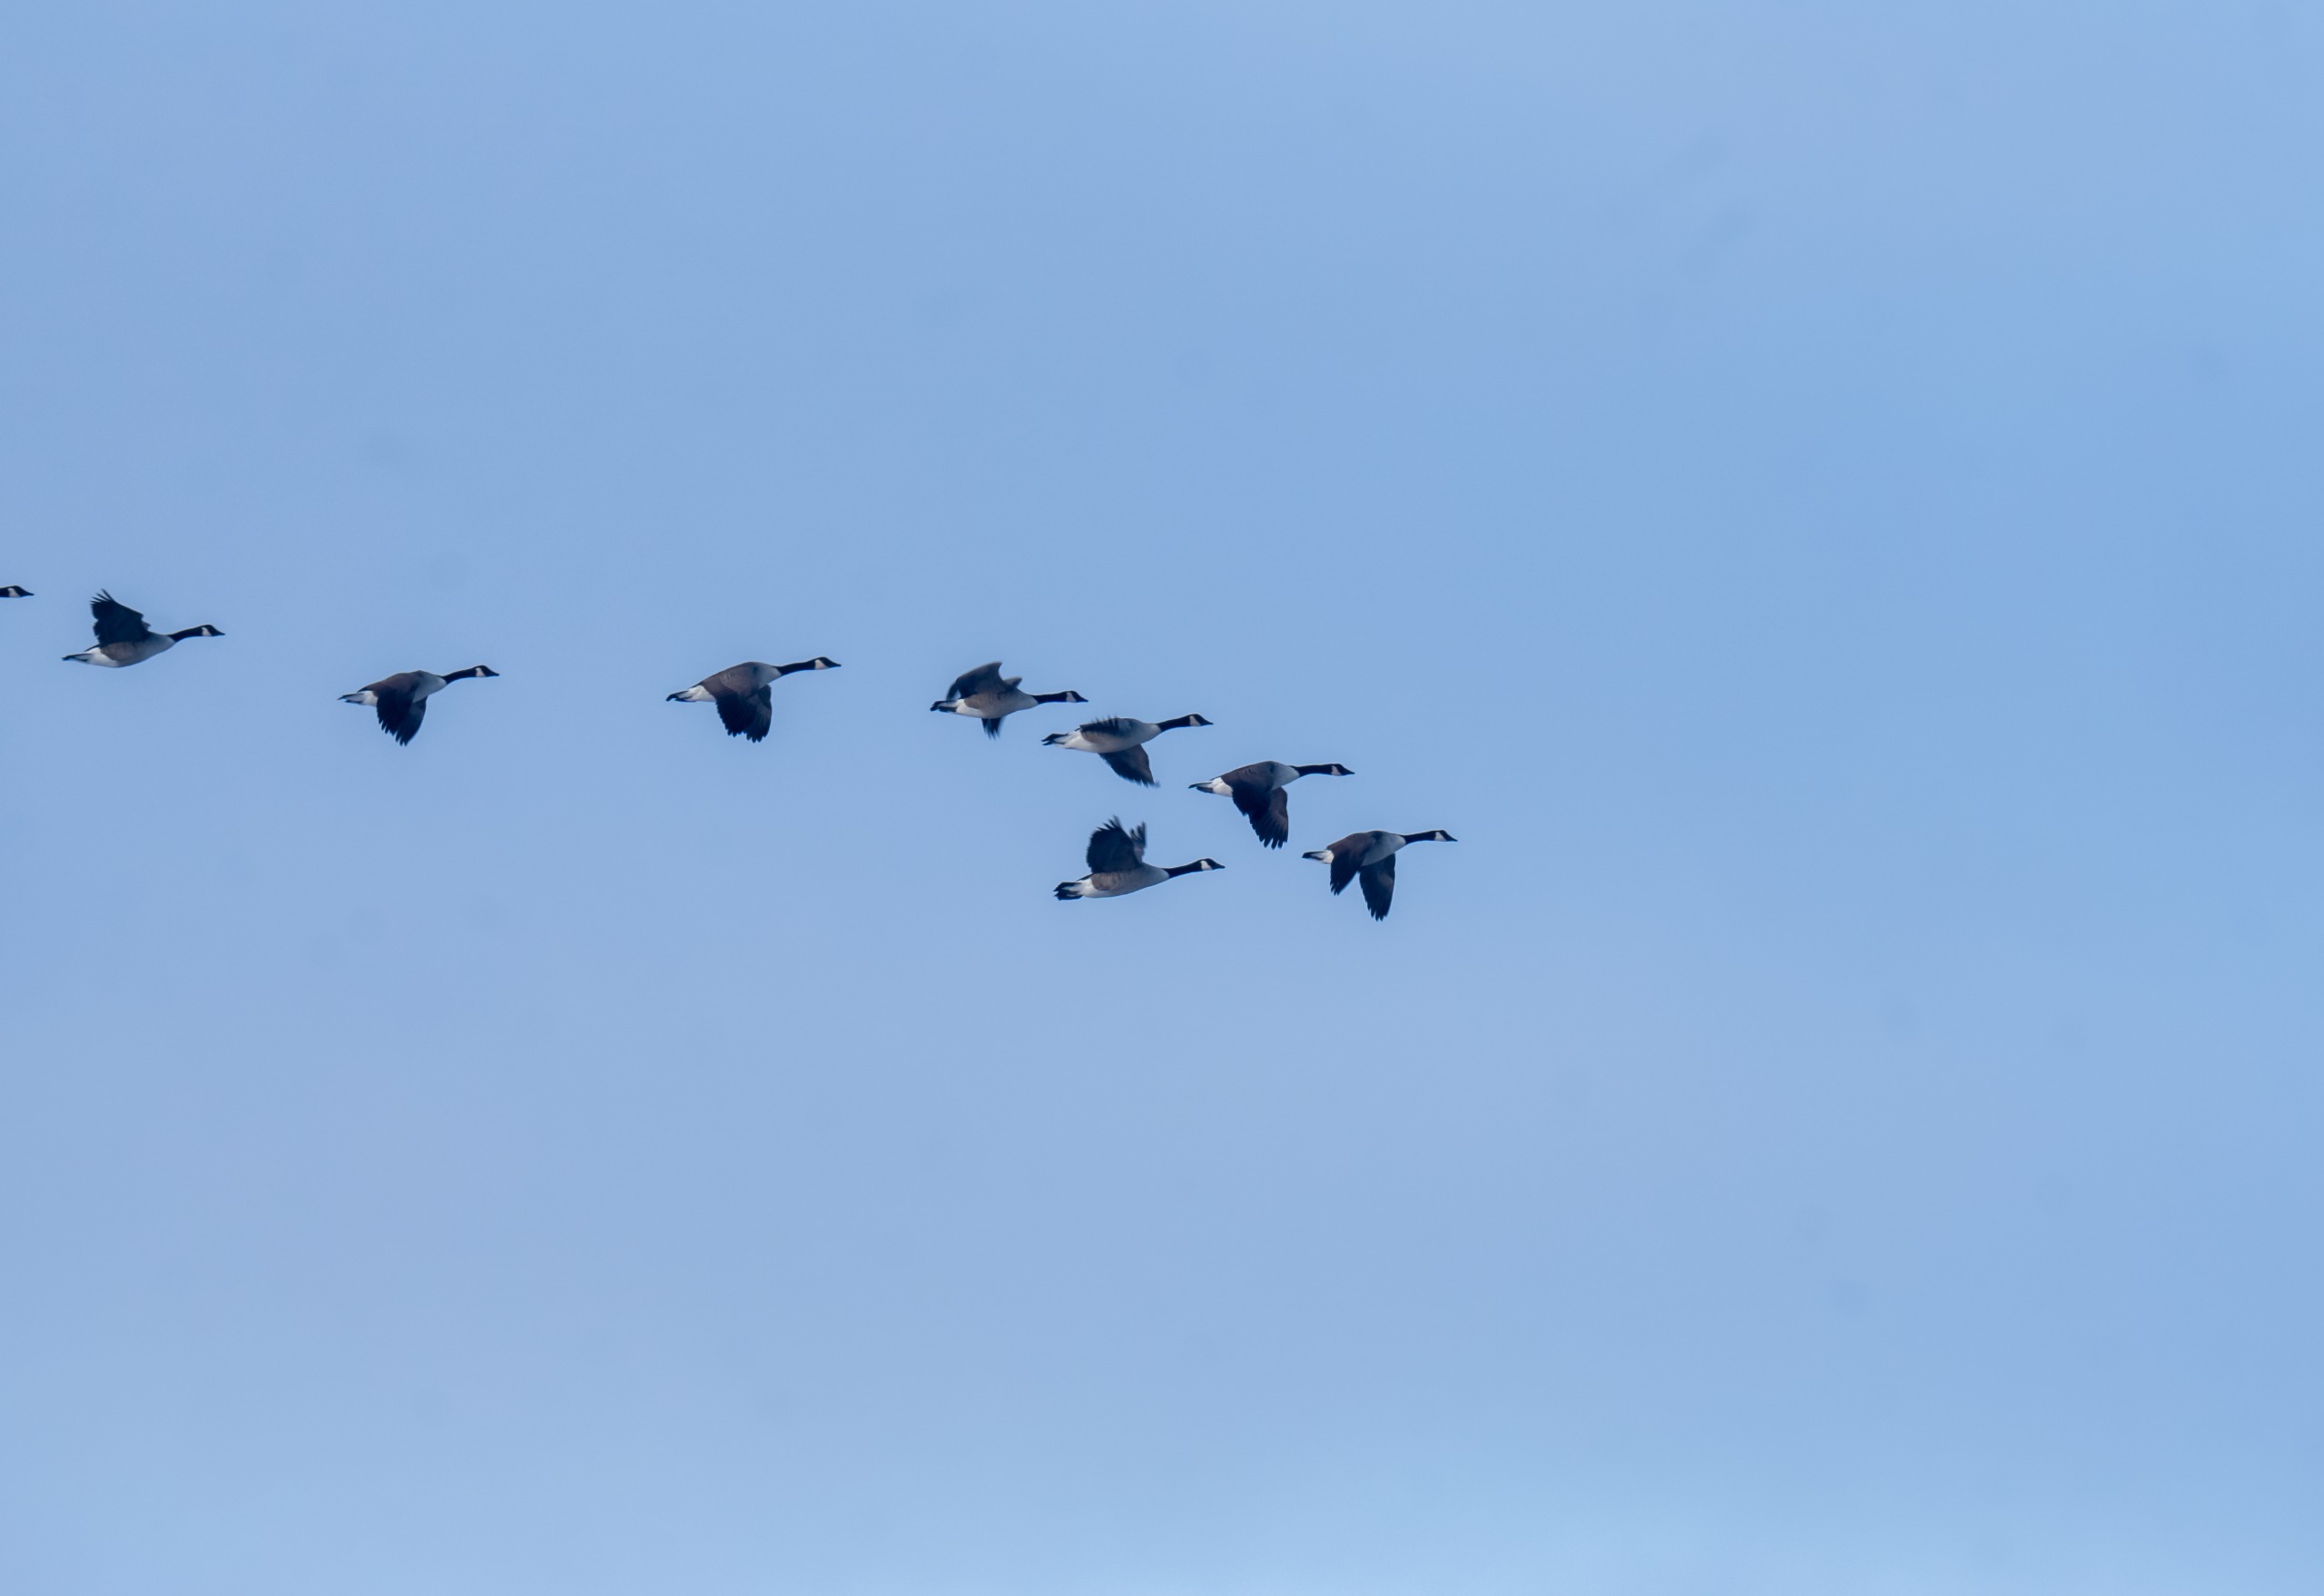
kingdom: Animalia
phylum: Chordata
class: Aves
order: Anseriformes
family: Anatidae
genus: Branta
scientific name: Branta canadensis
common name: Canadagås
